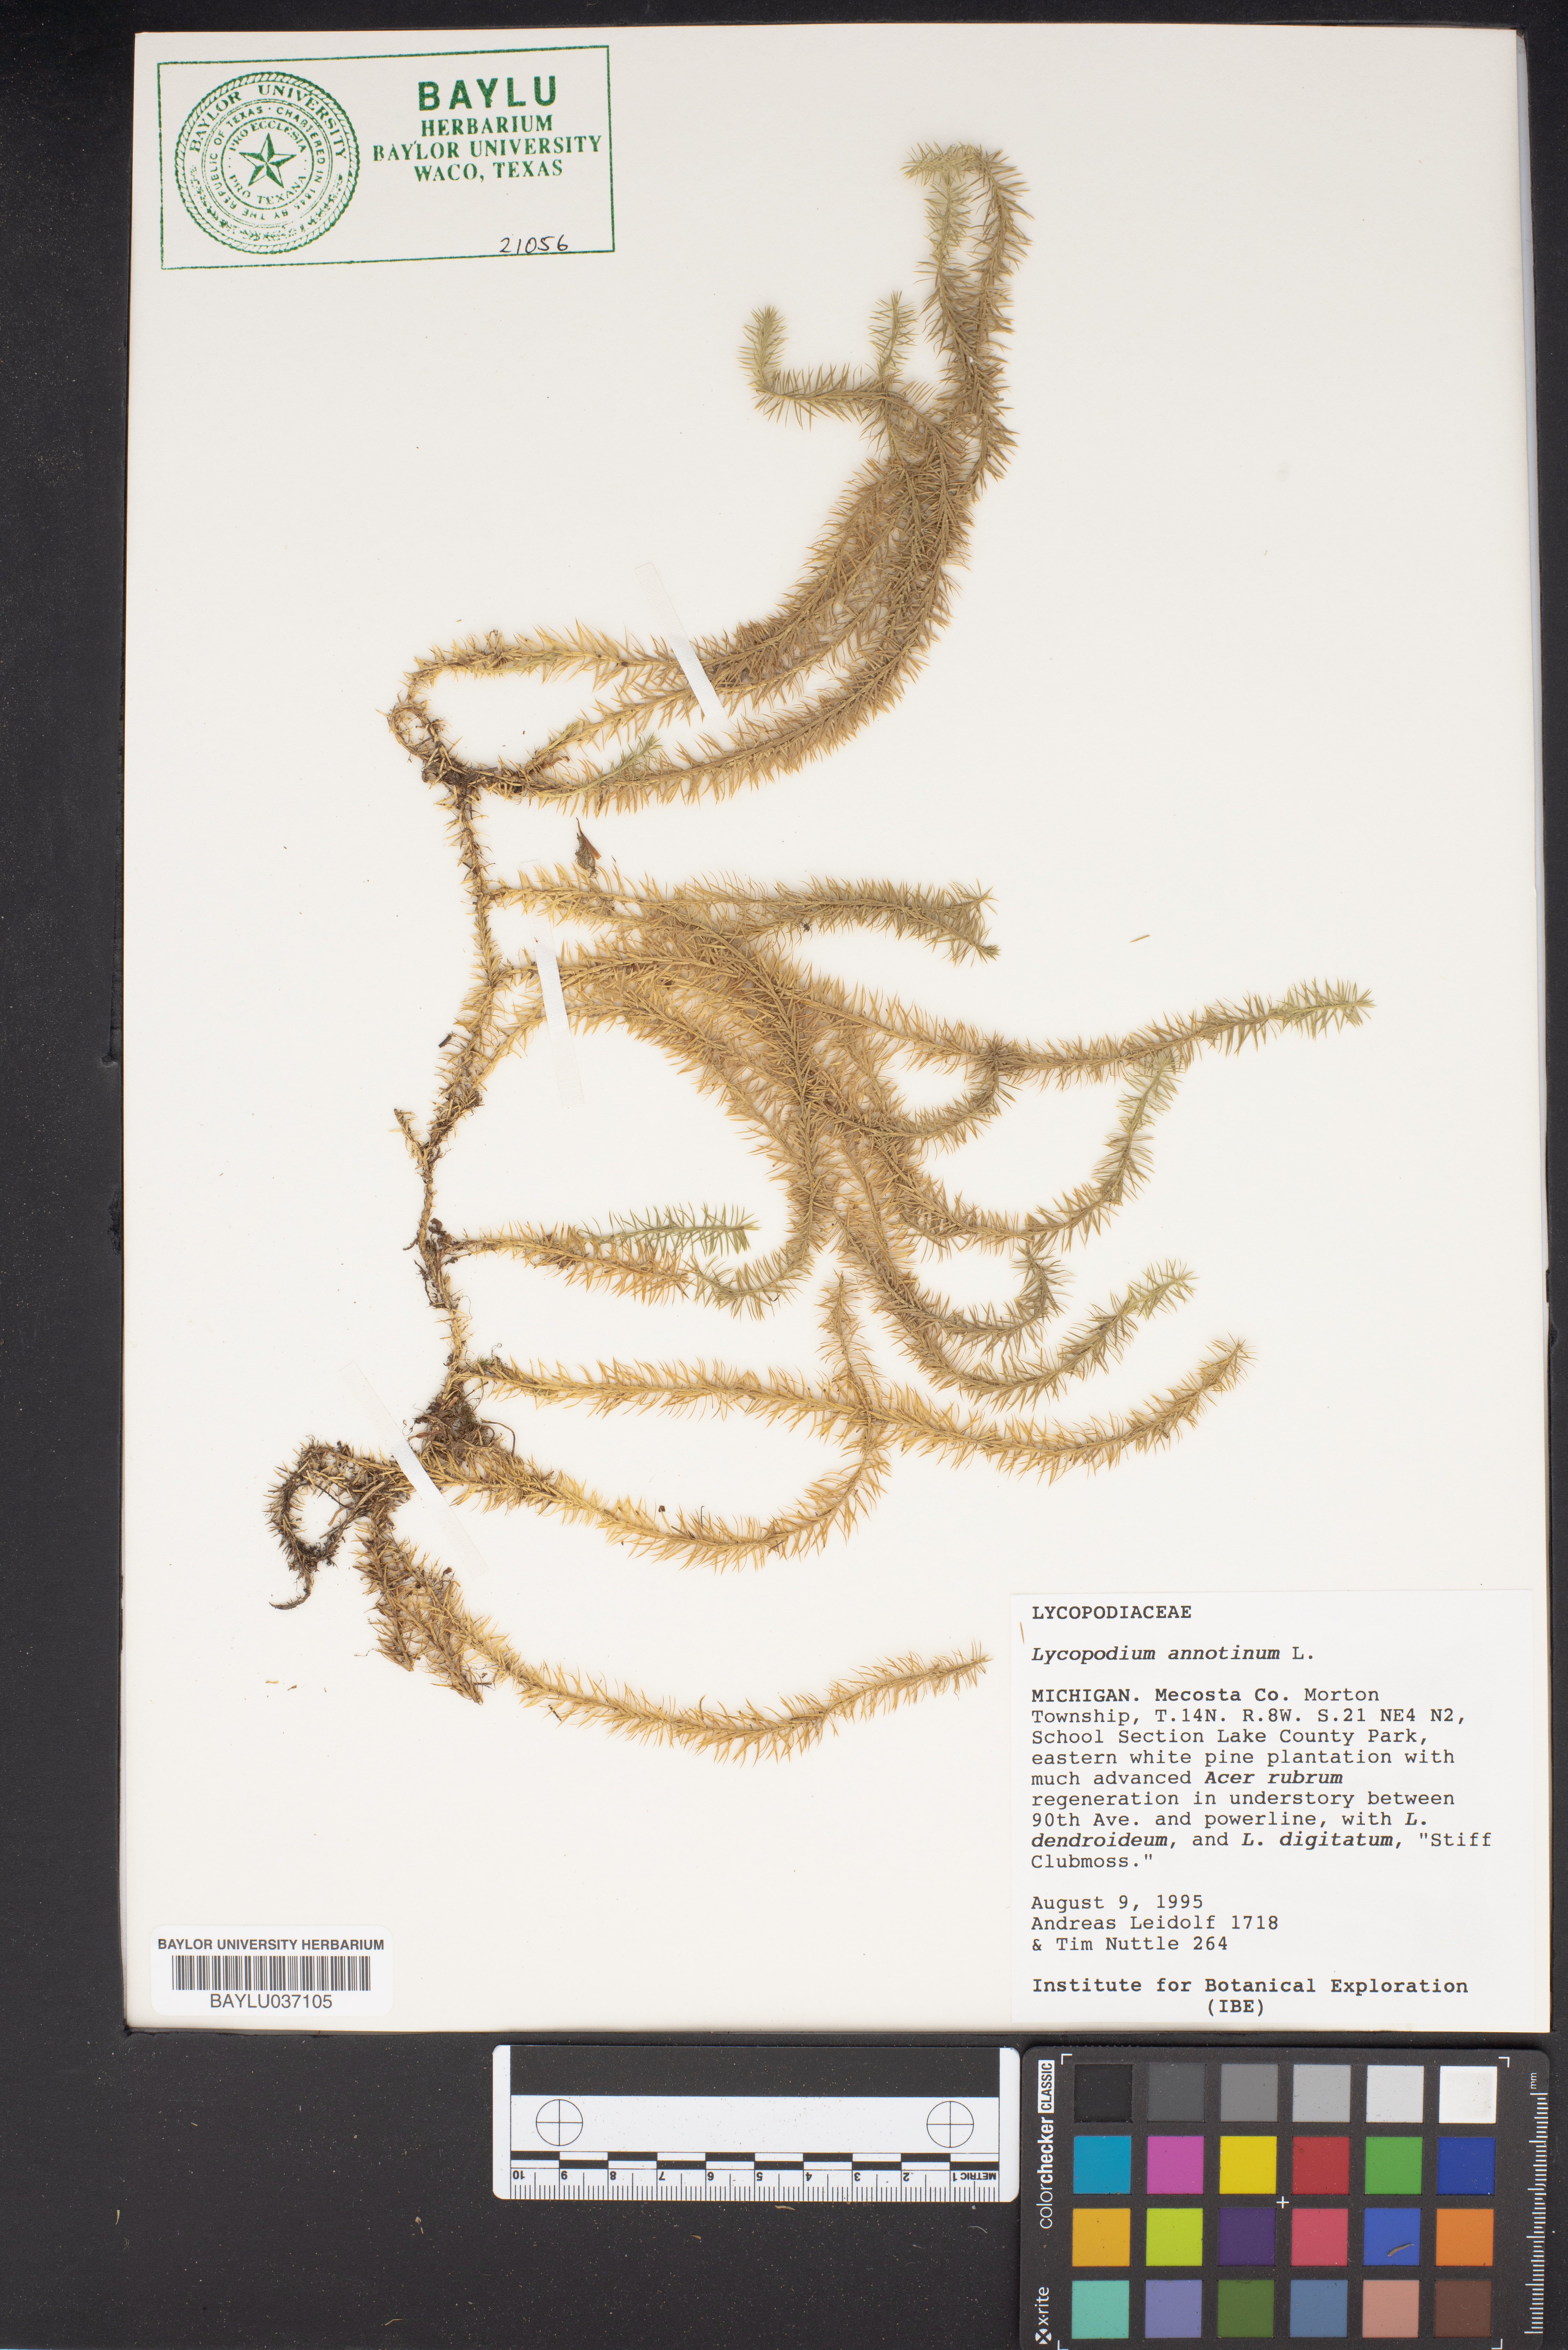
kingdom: Plantae
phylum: Tracheophyta
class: Lycopodiopsida
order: Lycopodiales
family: Lycopodiaceae
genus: Spinulum
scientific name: Spinulum annotinum
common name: Interrupted club-moss
